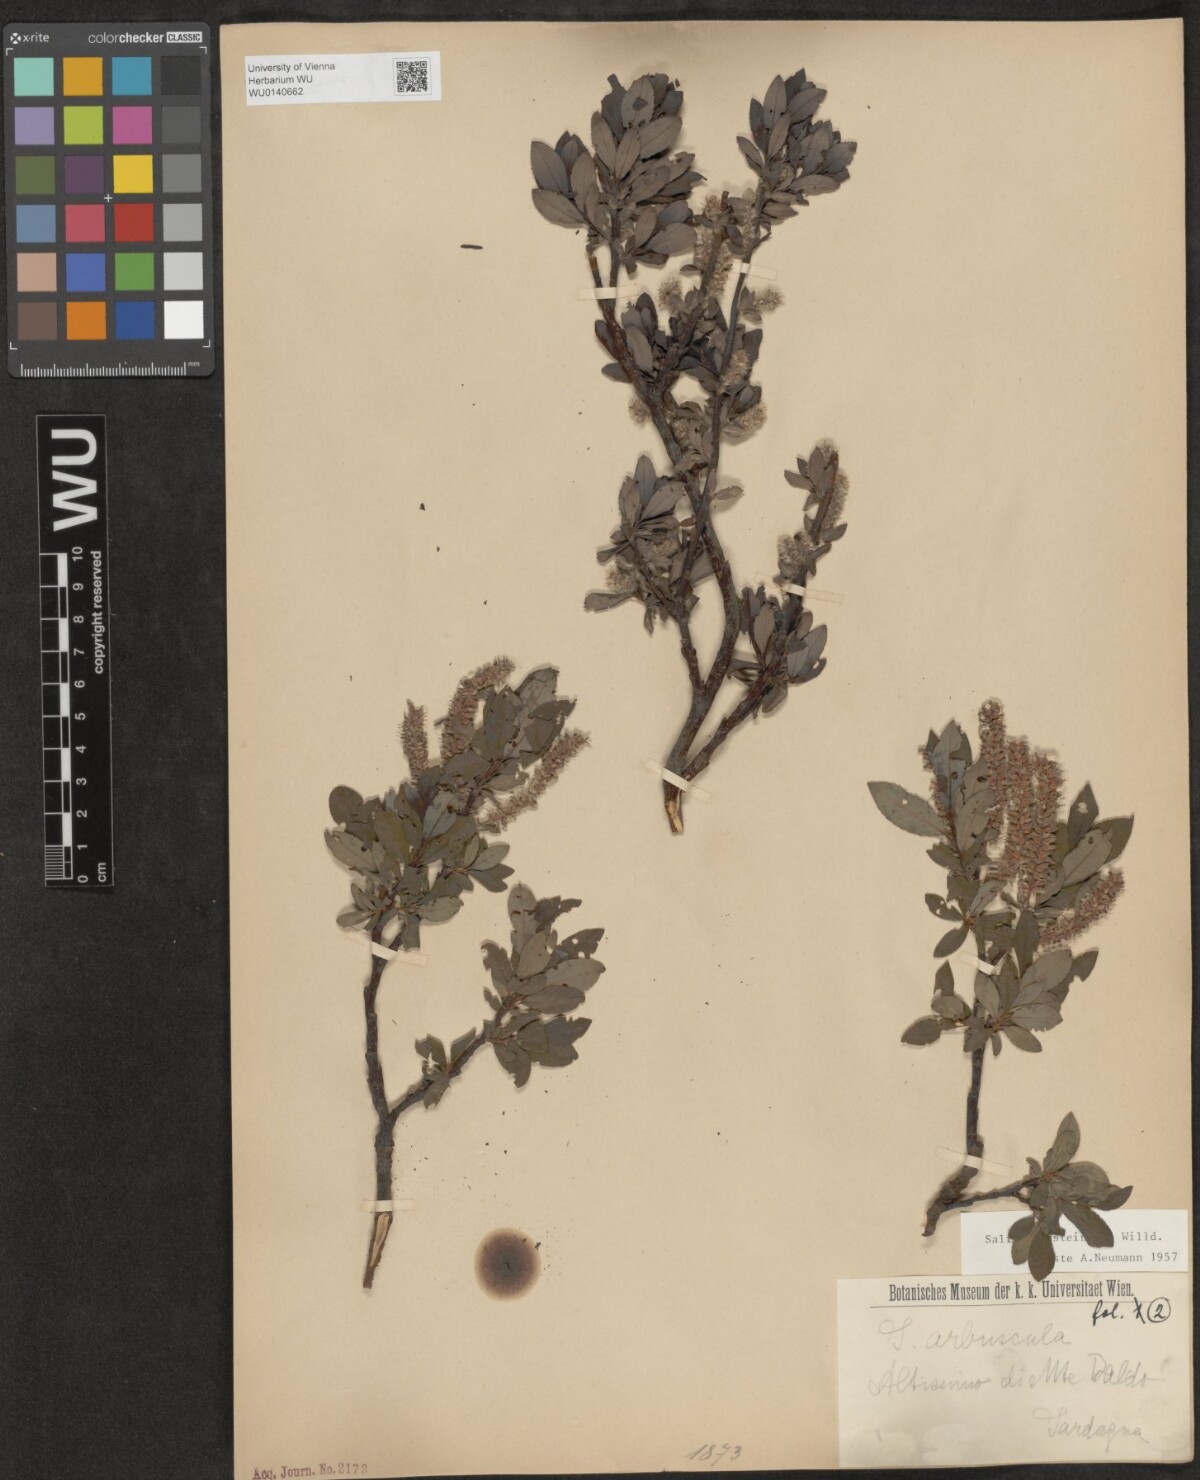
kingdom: Plantae
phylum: Tracheophyta
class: Magnoliopsida
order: Malpighiales
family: Salicaceae
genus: Salix
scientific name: Salix waldsteiniana
